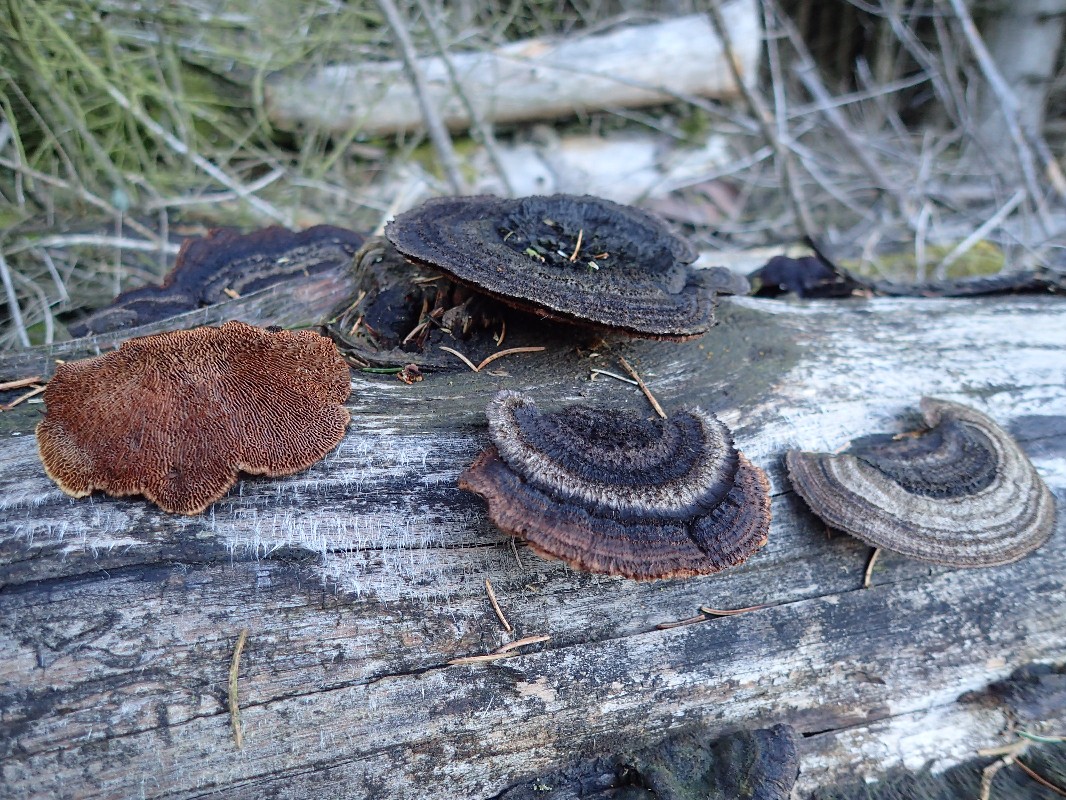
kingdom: Fungi
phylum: Basidiomycota
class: Agaricomycetes
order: Gloeophyllales
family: Gloeophyllaceae
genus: Gloeophyllum
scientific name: Gloeophyllum sepiarium
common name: fyrre-korkhat
